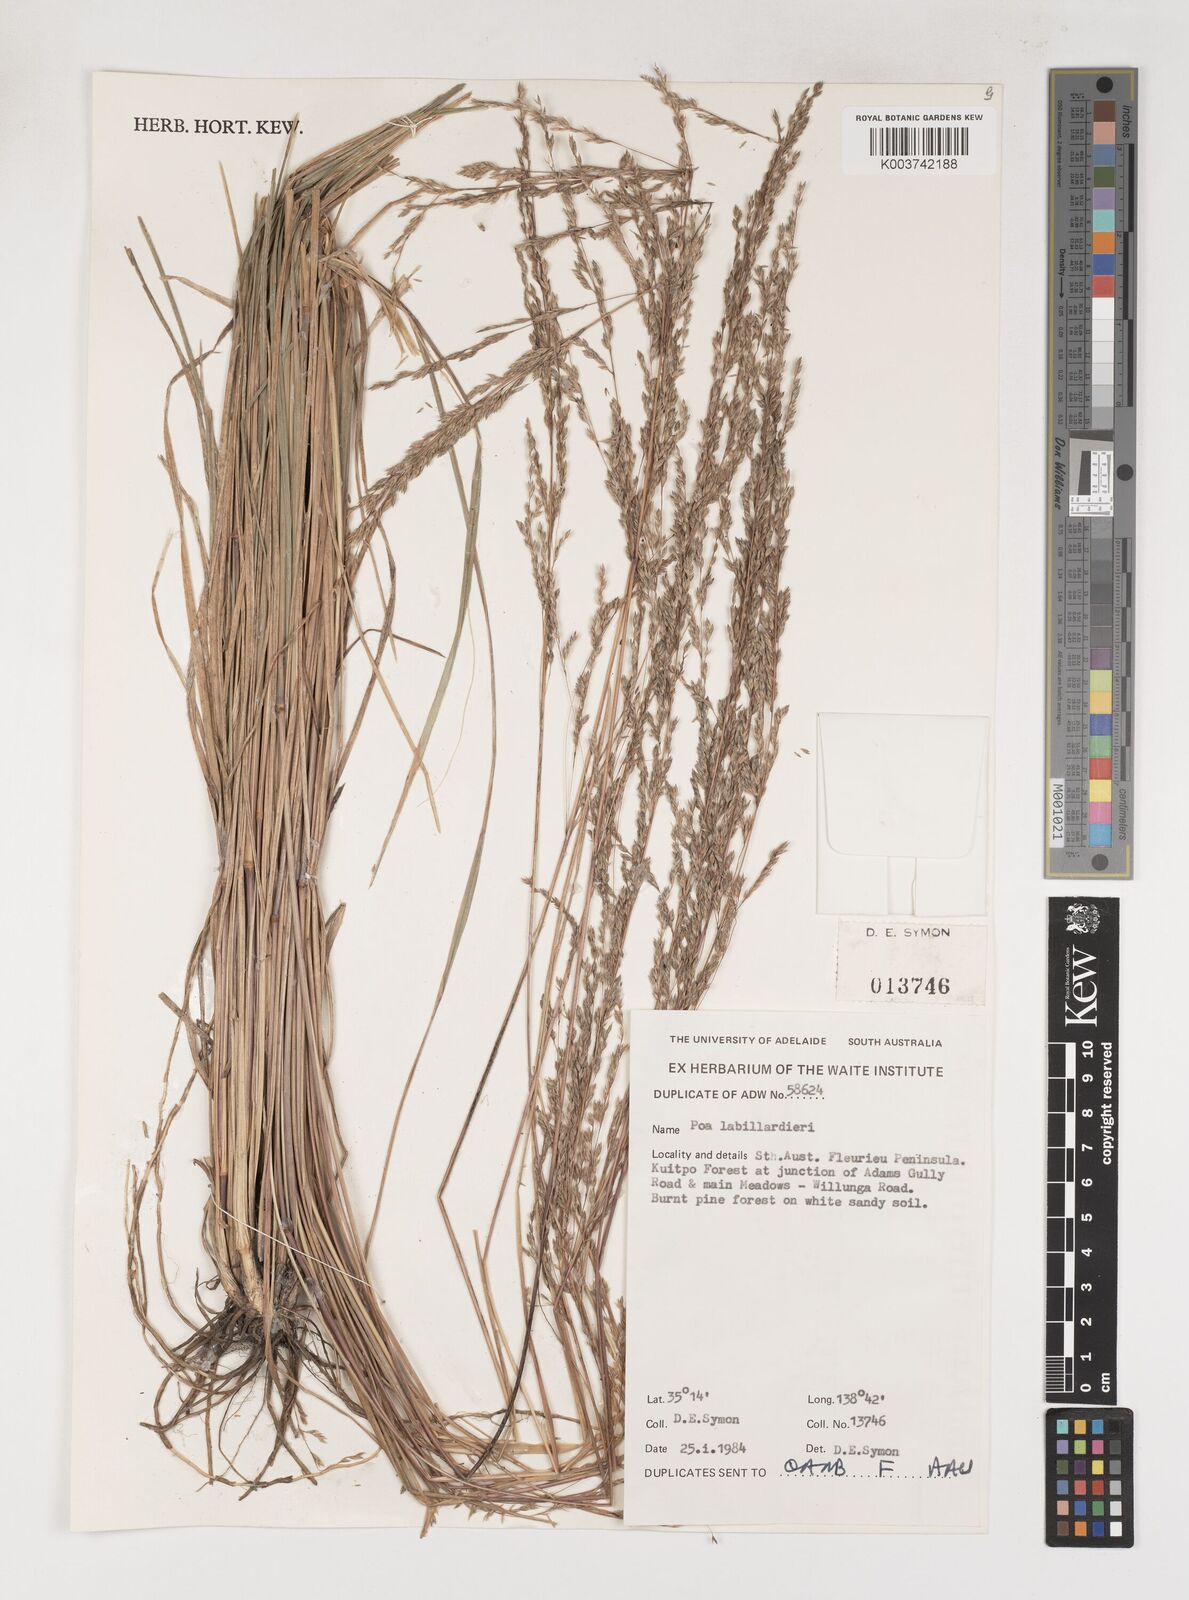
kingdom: Plantae
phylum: Tracheophyta
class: Liliopsida
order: Poales
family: Poaceae
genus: Poa
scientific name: Poa labillardierei
